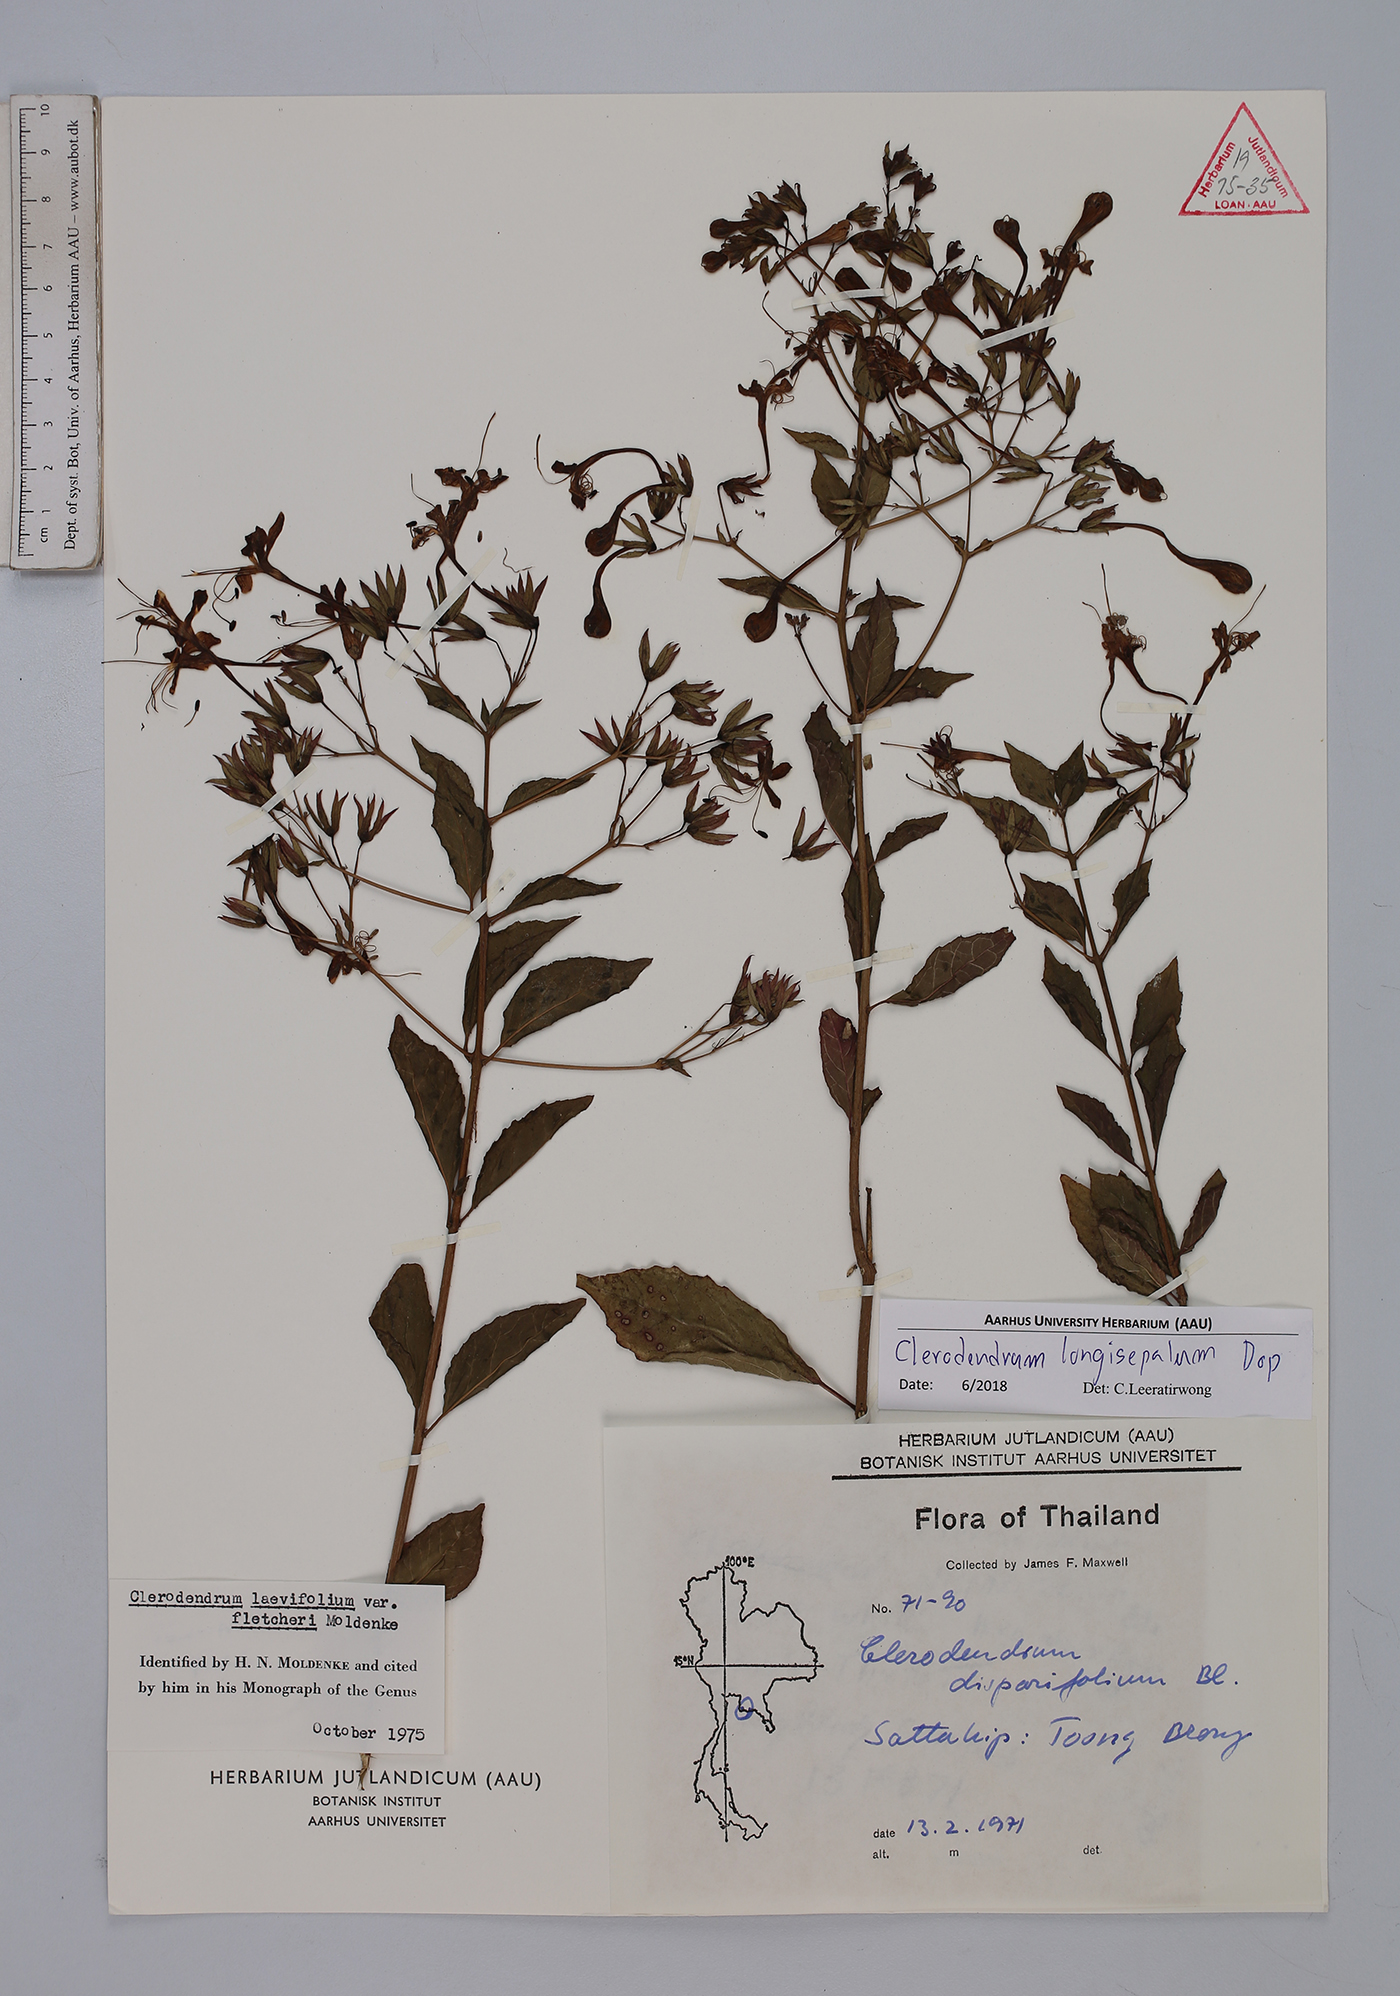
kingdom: Plantae
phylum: Tracheophyta
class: Magnoliopsida
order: Lamiales
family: Lamiaceae
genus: Clerodendrum
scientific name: Clerodendrum longisepalum
